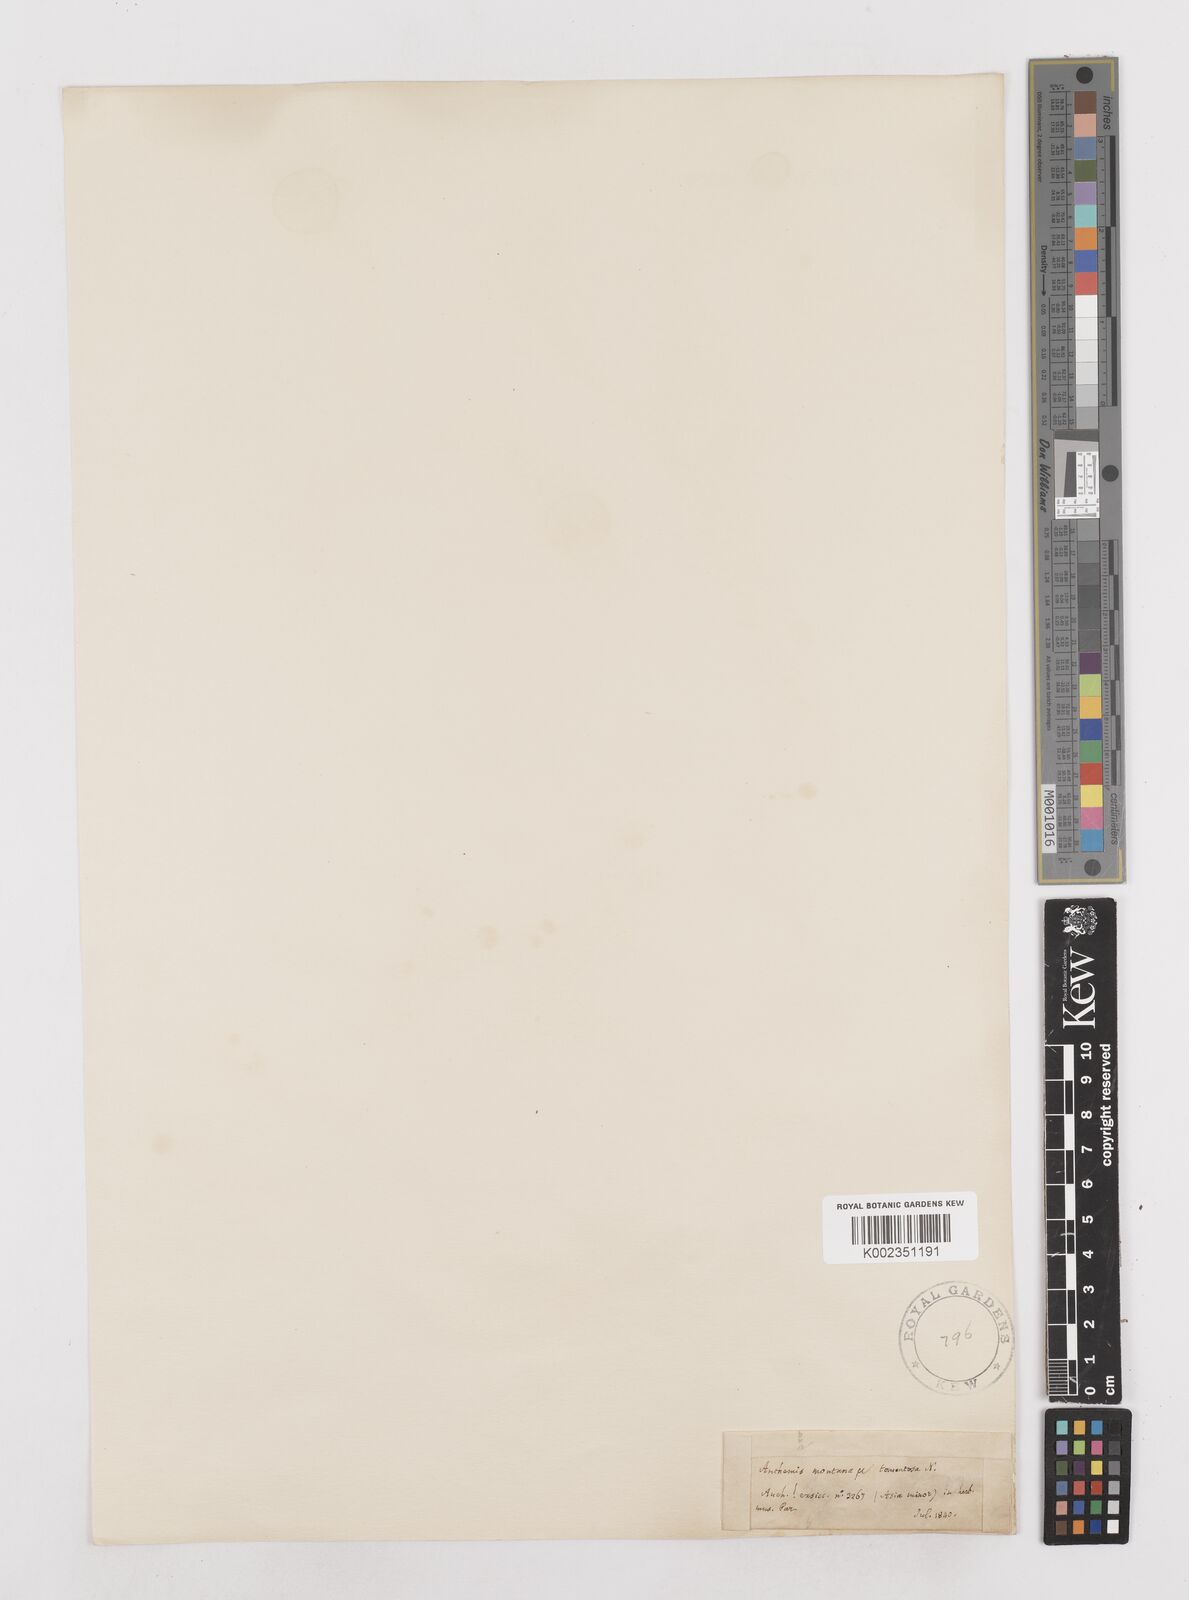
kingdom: Plantae
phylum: Tracheophyta
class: Magnoliopsida
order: Asterales
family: Asteraceae
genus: Anthemis
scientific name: Anthemis cretica
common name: Mountain dog-daisy
